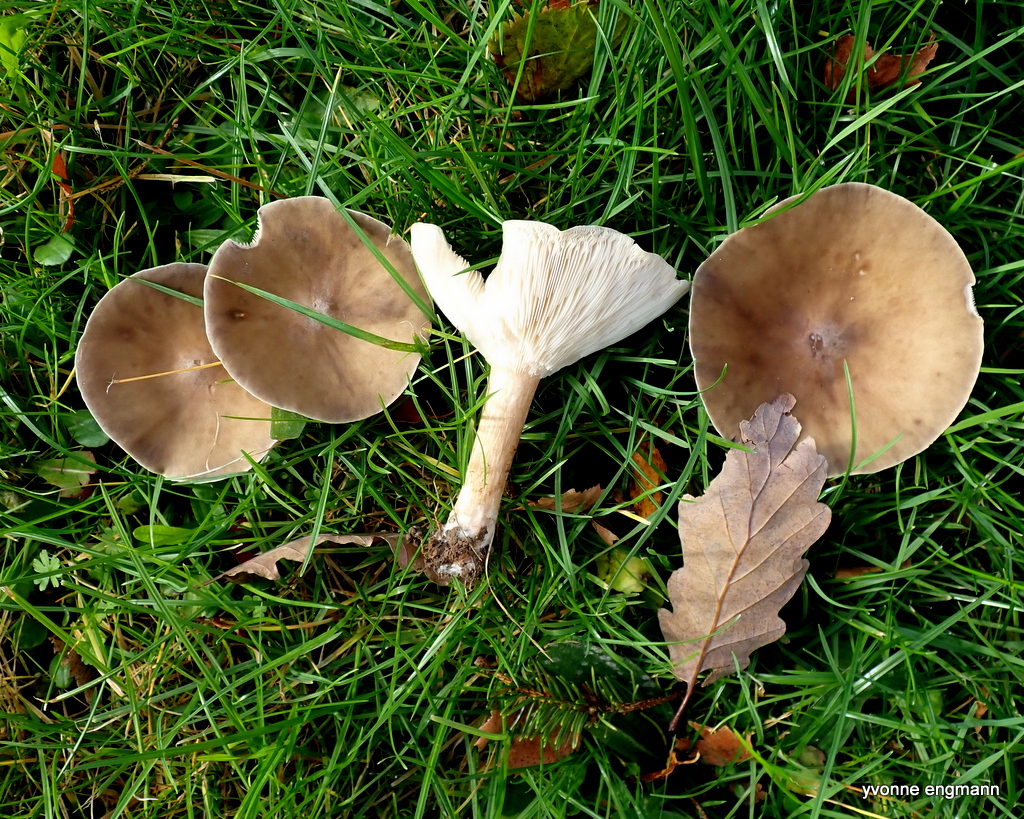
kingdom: Fungi
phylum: Basidiomycota
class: Agaricomycetes
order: Agaricales
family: Tricholomataceae
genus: Melanoleuca
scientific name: Melanoleuca
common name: munkehat
